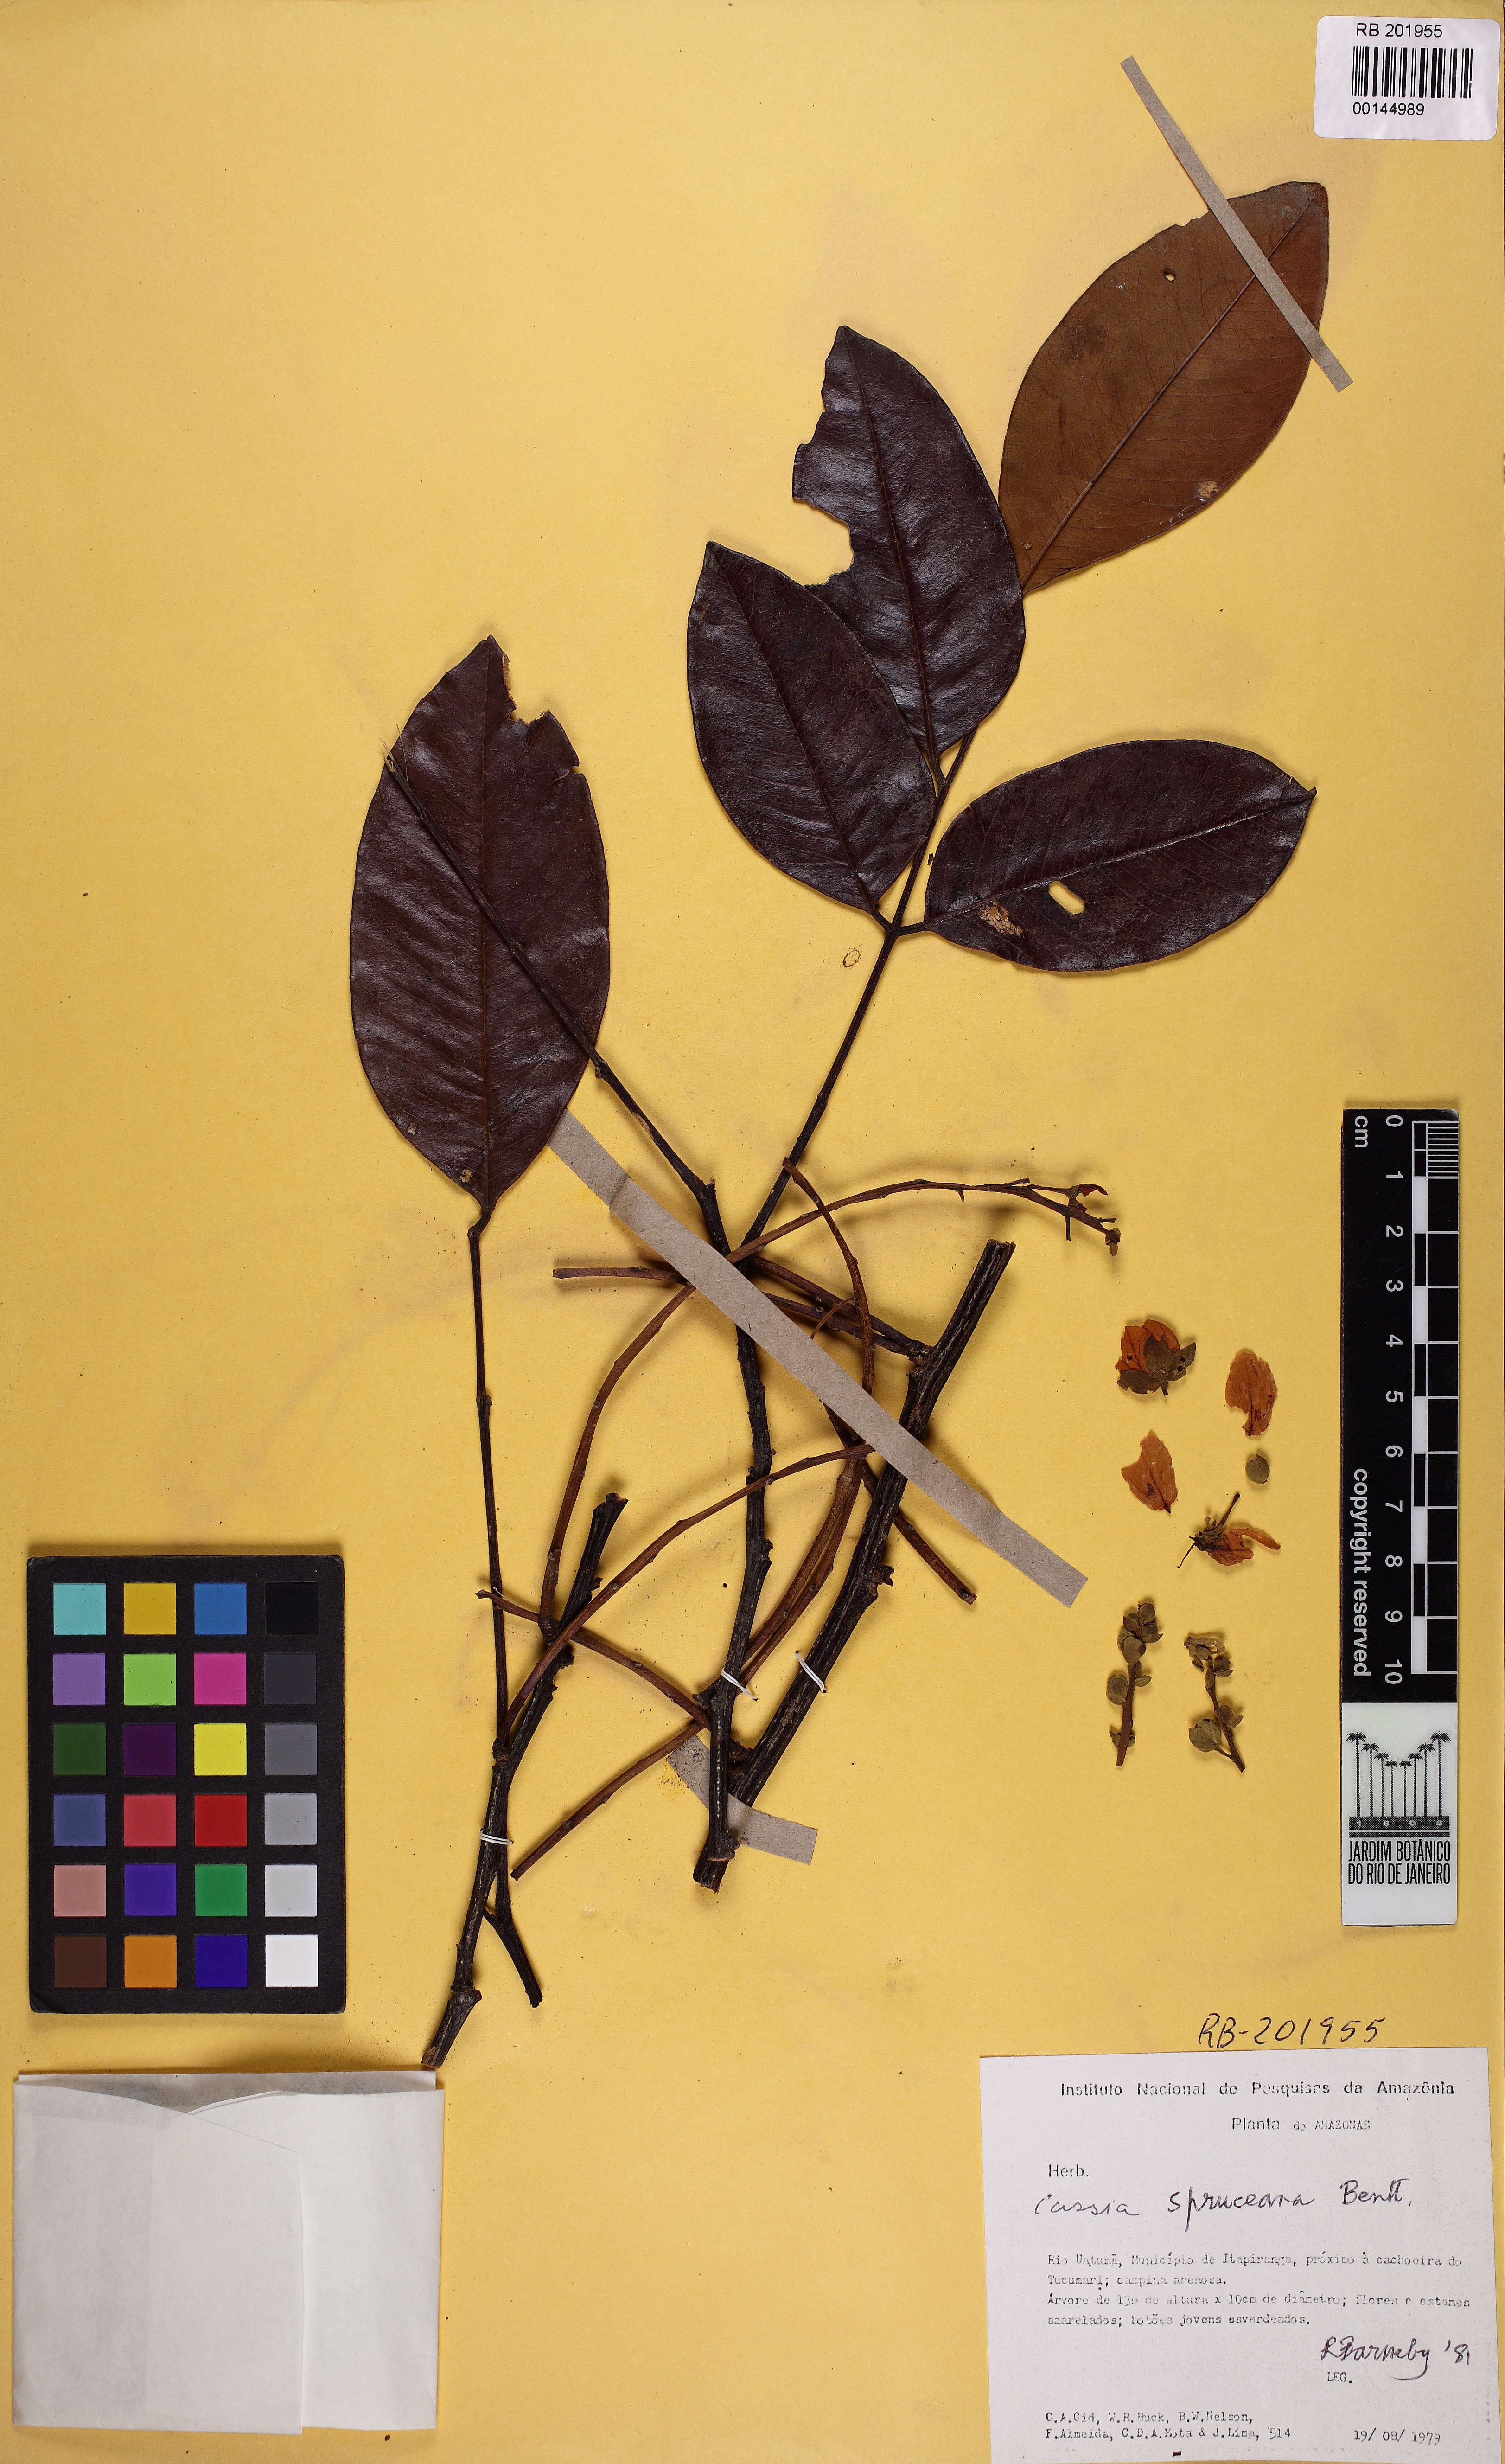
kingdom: Plantae
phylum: Tracheophyta
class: Magnoliopsida
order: Fabales
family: Fabaceae
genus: Cassia
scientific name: Cassia spruceana
